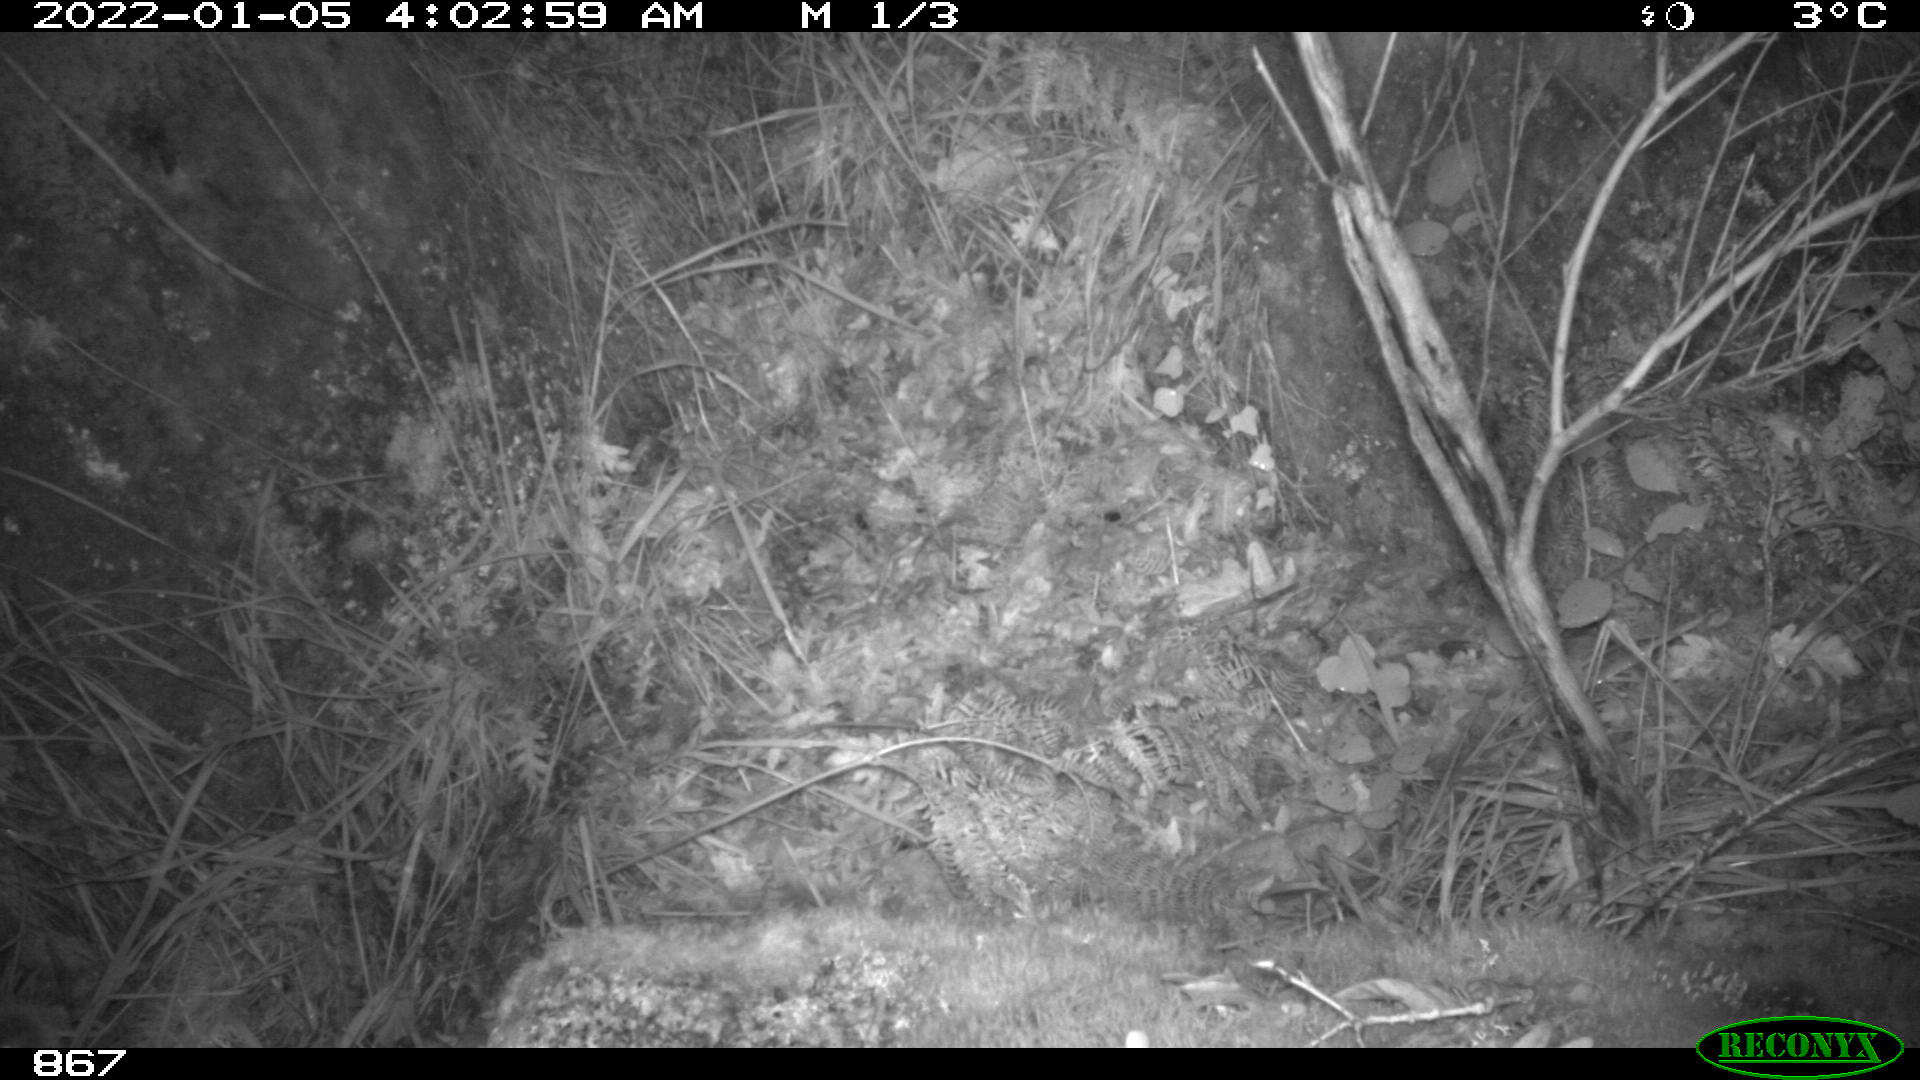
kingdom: Animalia
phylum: Chordata
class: Mammalia
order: Artiodactyla
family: Cervidae
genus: Capreolus
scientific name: Capreolus capreolus
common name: Western roe deer
